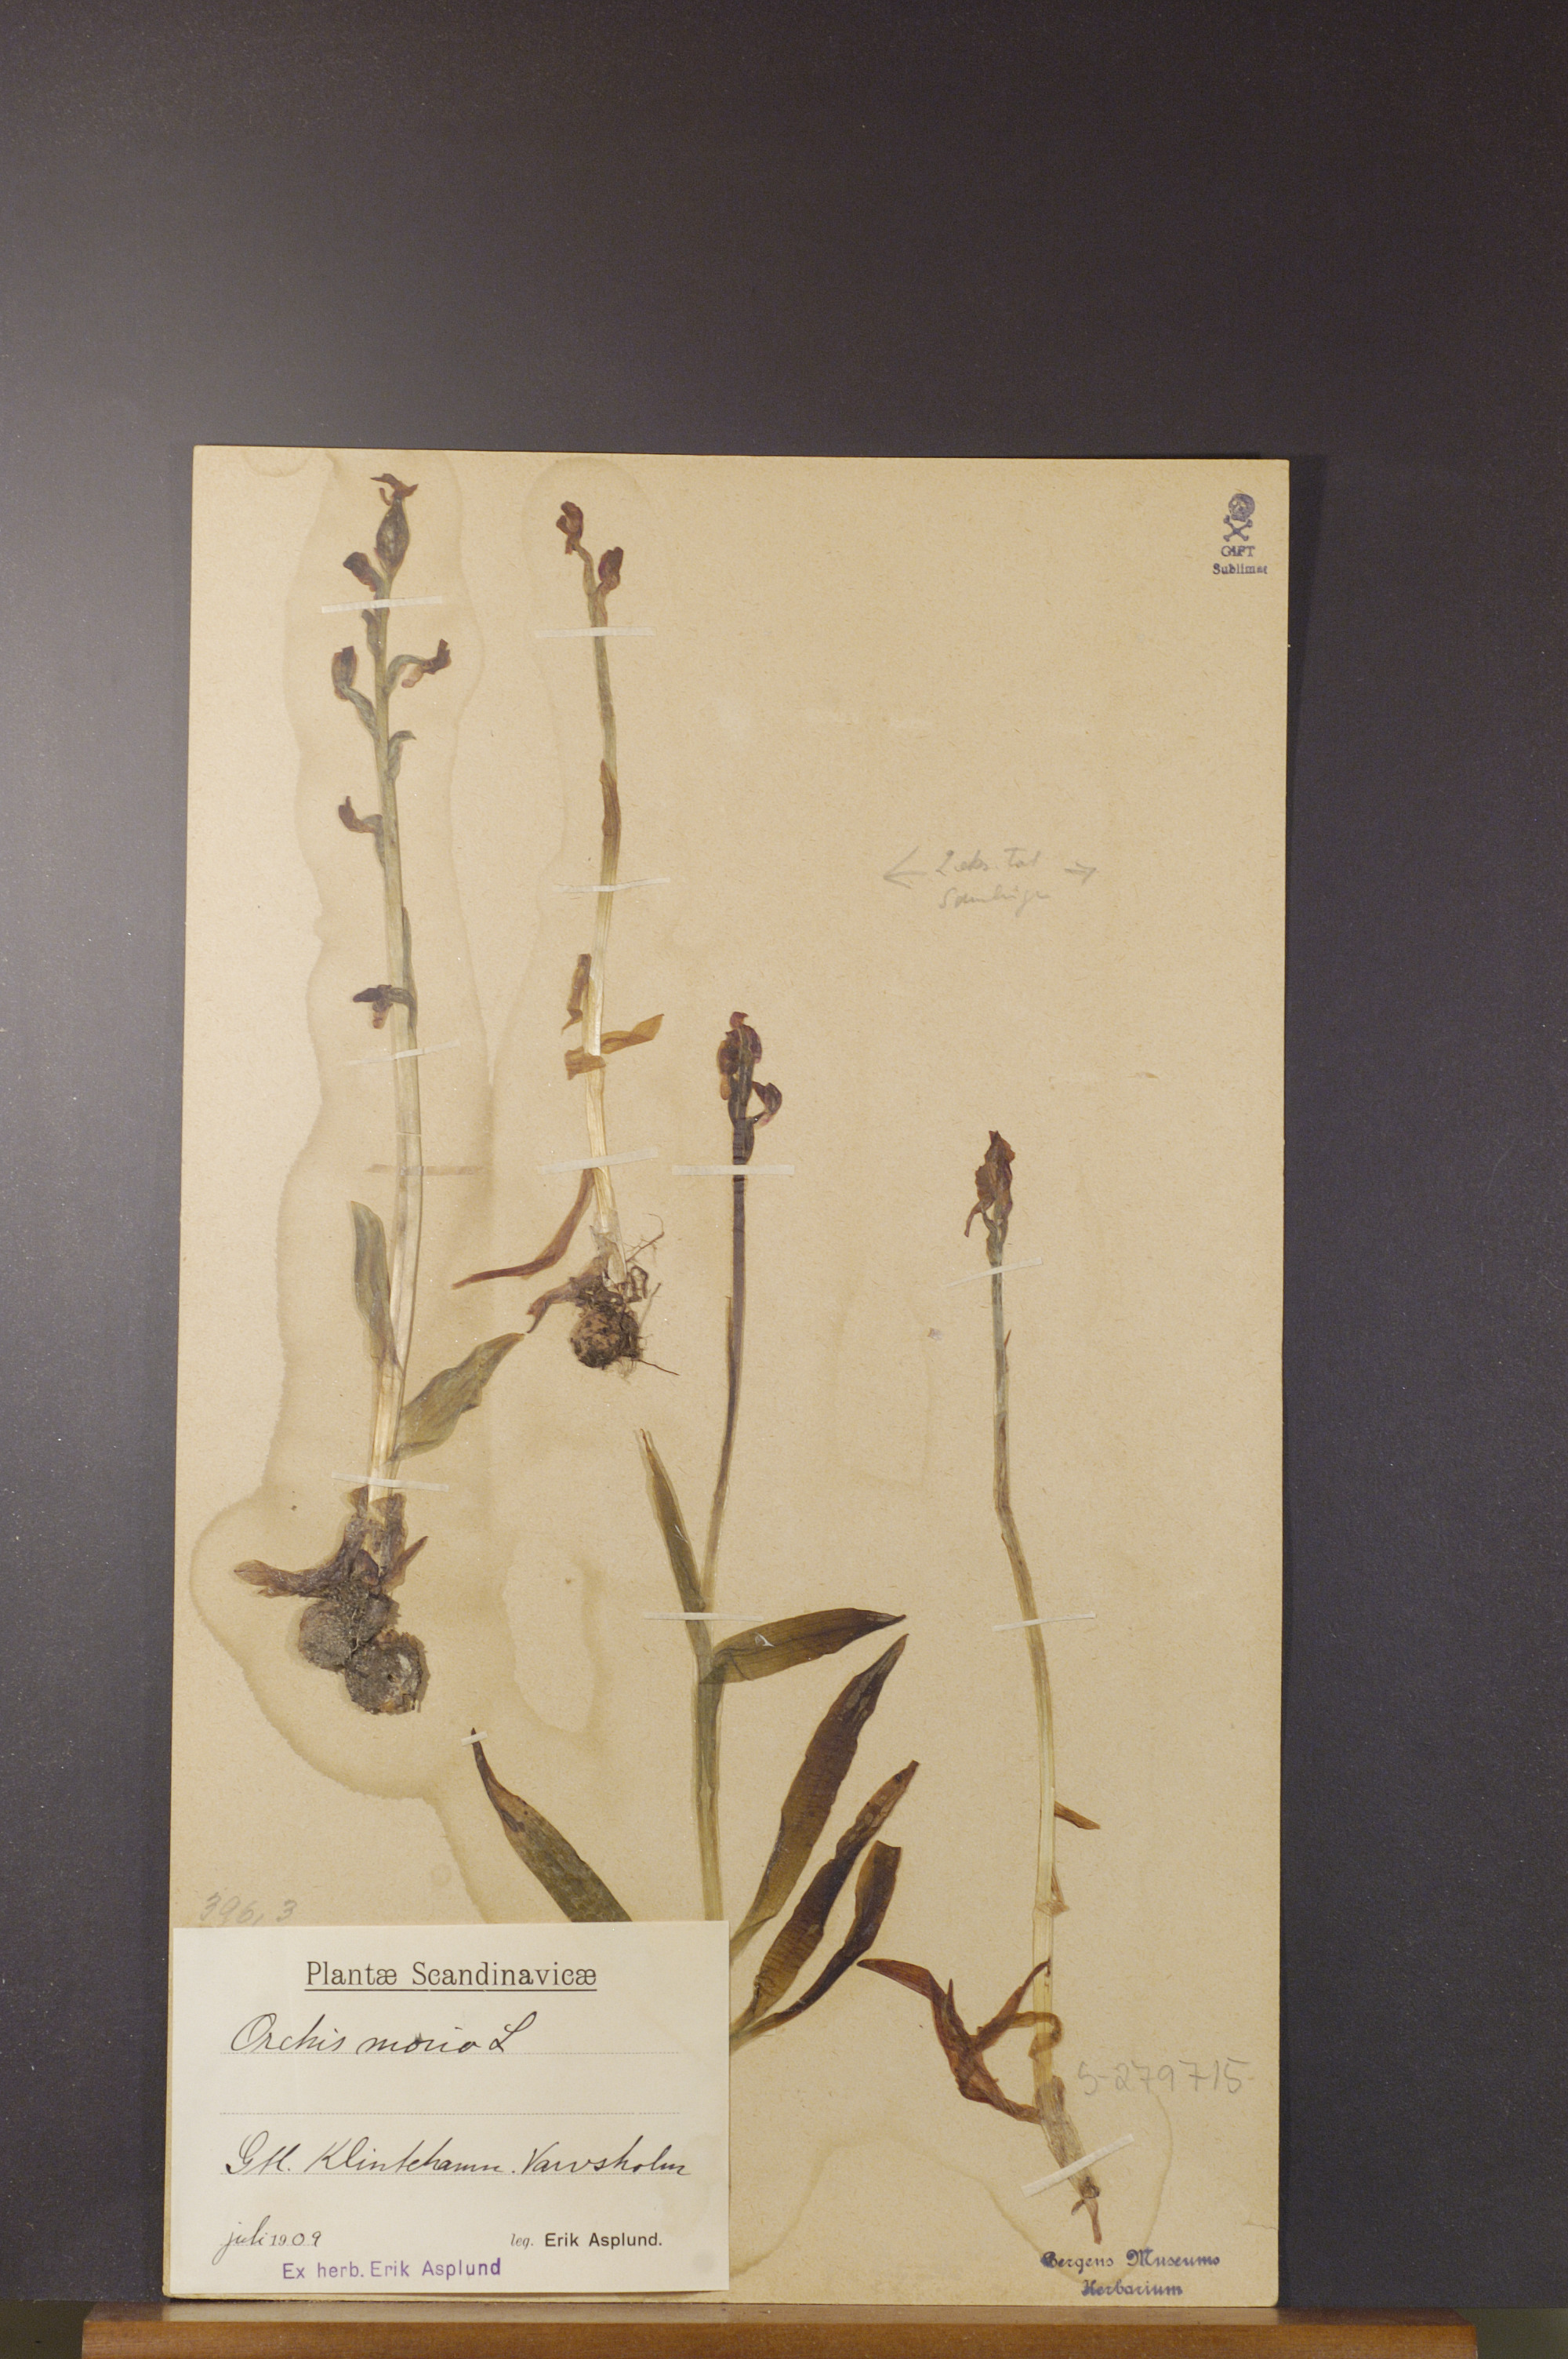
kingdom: Plantae
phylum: Tracheophyta
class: Liliopsida
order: Asparagales
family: Orchidaceae
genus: Anacamptis
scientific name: Anacamptis morio
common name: Green-winged orchid
